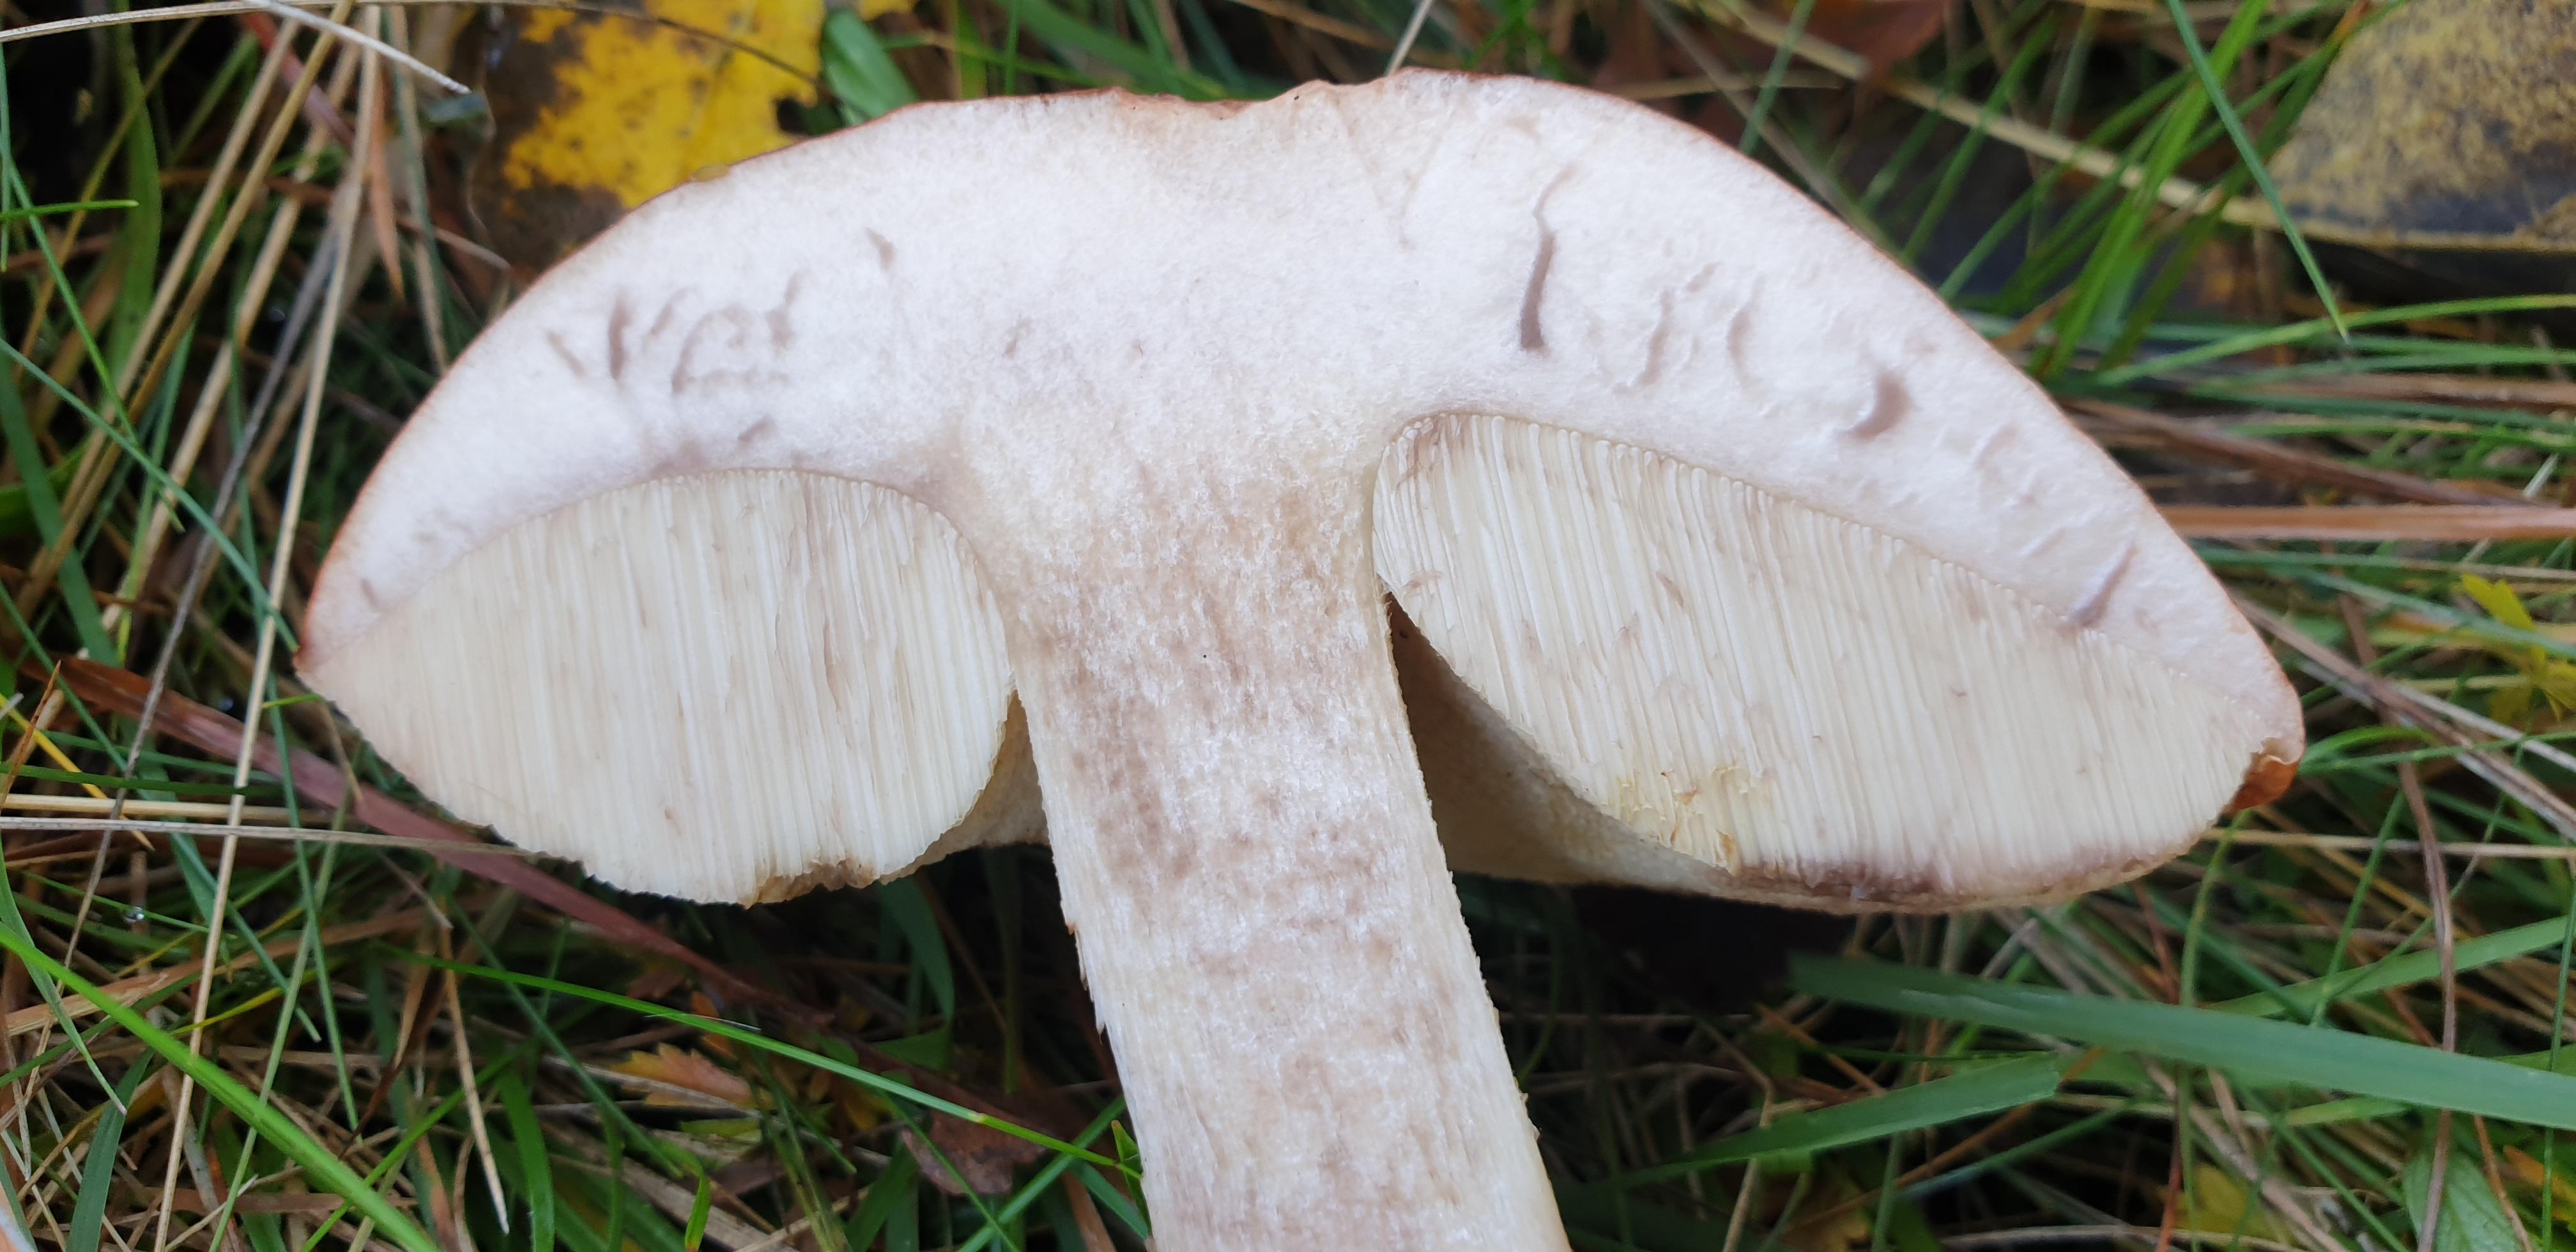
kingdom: Fungi
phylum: Basidiomycota
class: Agaricomycetes
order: Boletales
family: Boletaceae
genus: Leccinum
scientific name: Leccinum albostipitatum
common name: aspe-skælrørhat
